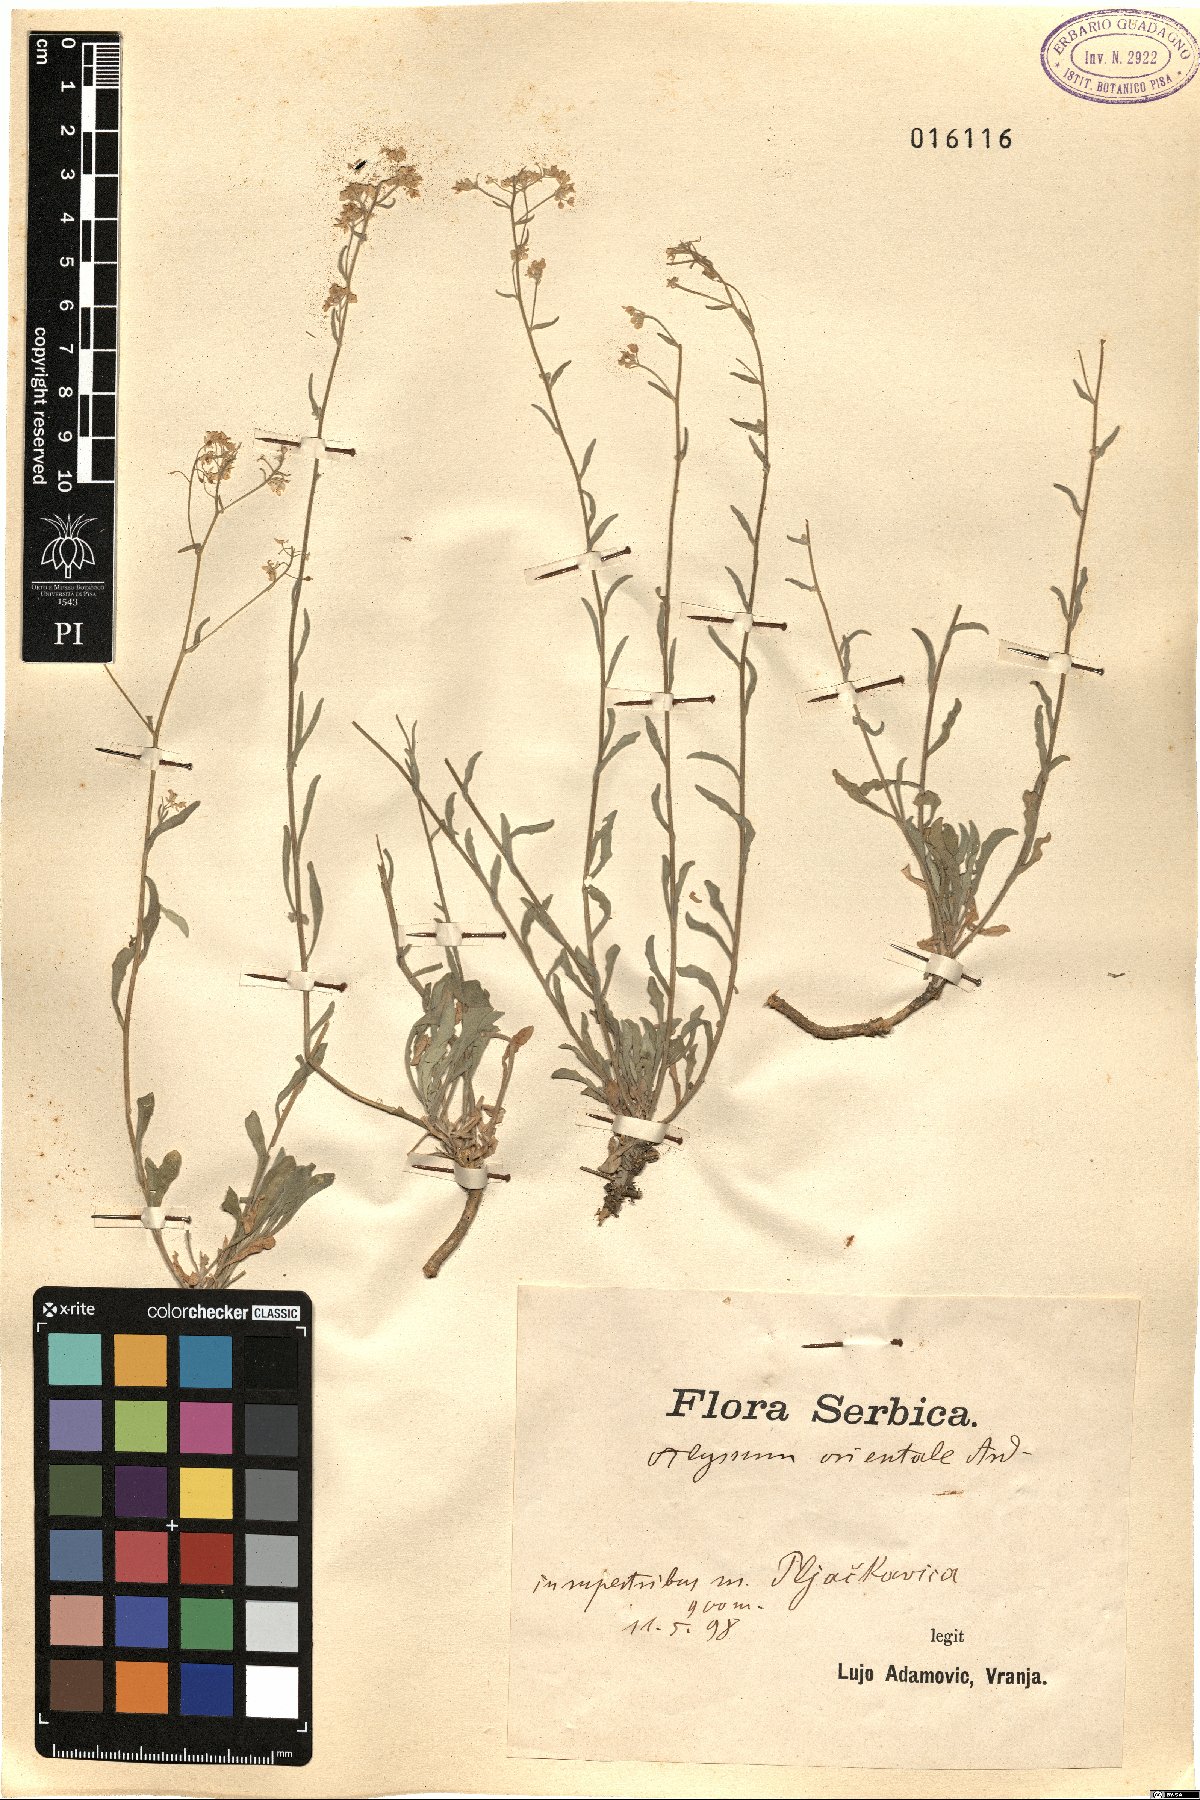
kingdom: Plantae
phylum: Tracheophyta
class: Magnoliopsida
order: Brassicales
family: Brassicaceae
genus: Aurinia
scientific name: Aurinia saxatilis
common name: Golden-tuft alyssum
